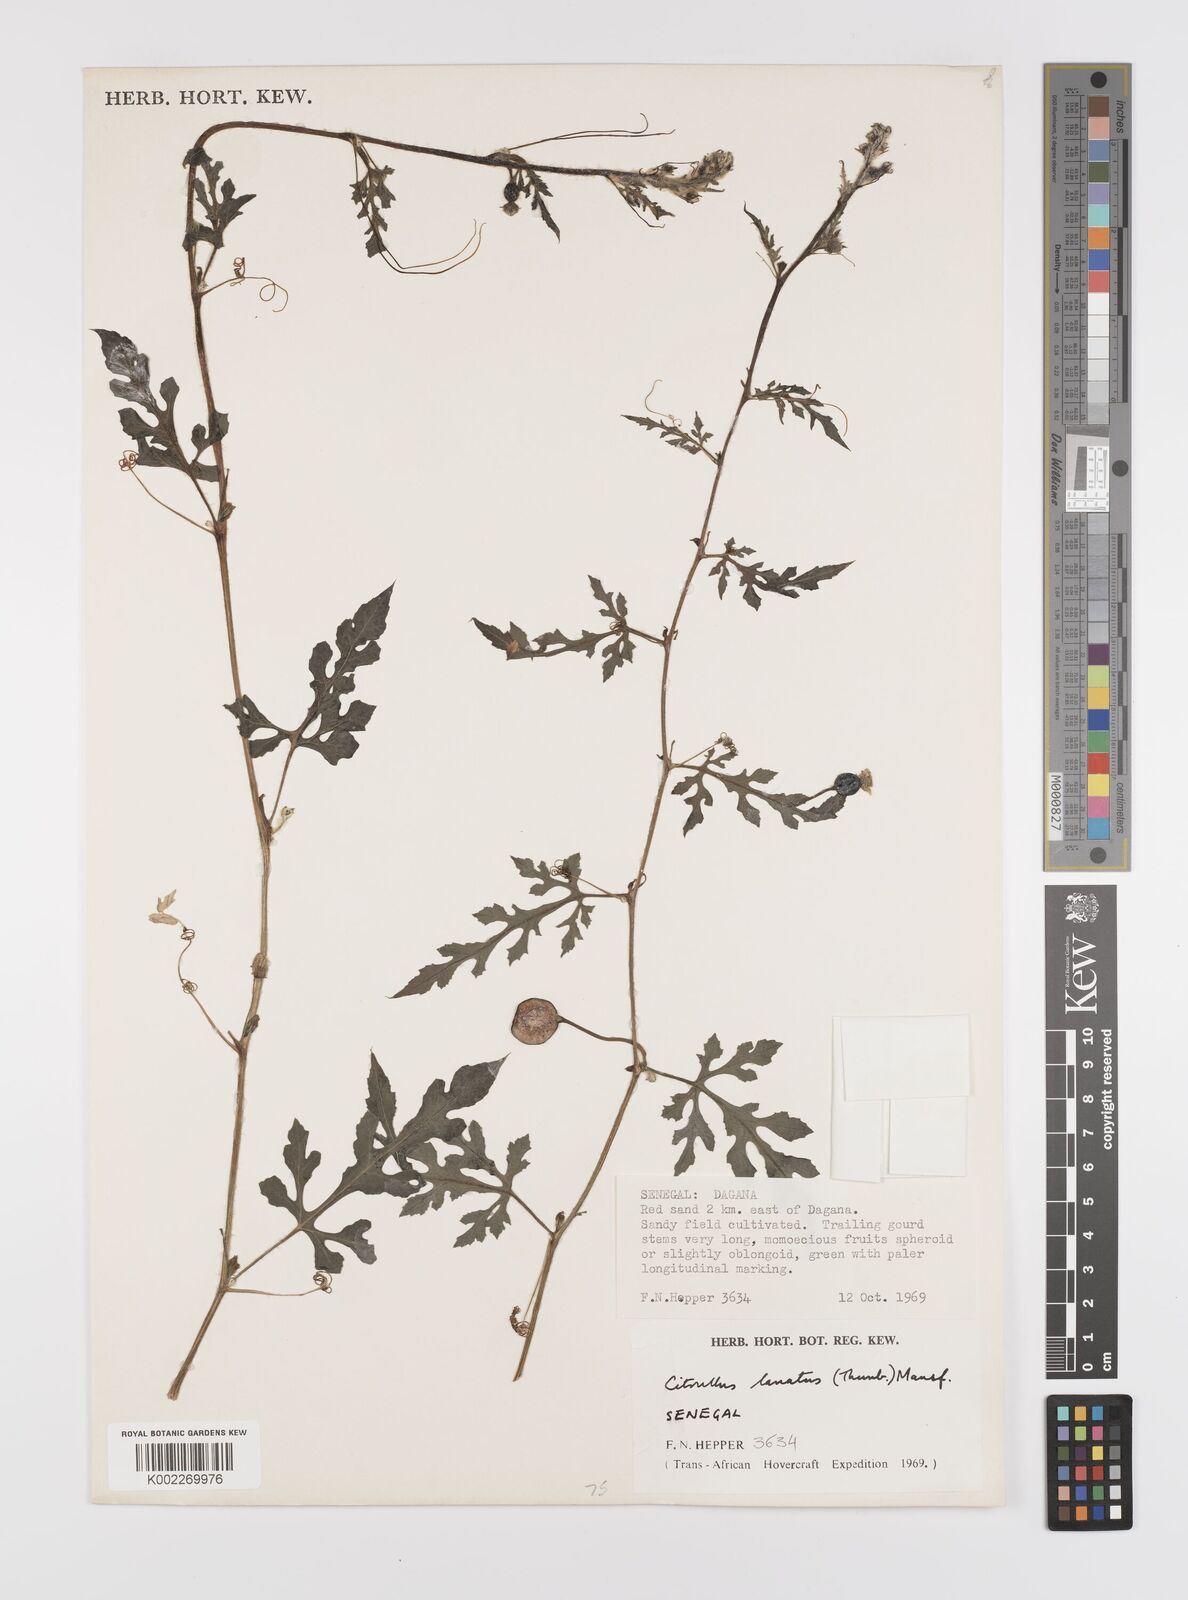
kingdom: Plantae
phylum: Tracheophyta
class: Magnoliopsida
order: Cucurbitales
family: Cucurbitaceae
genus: Citrullus
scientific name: Citrullus lanatus
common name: Watermelon
